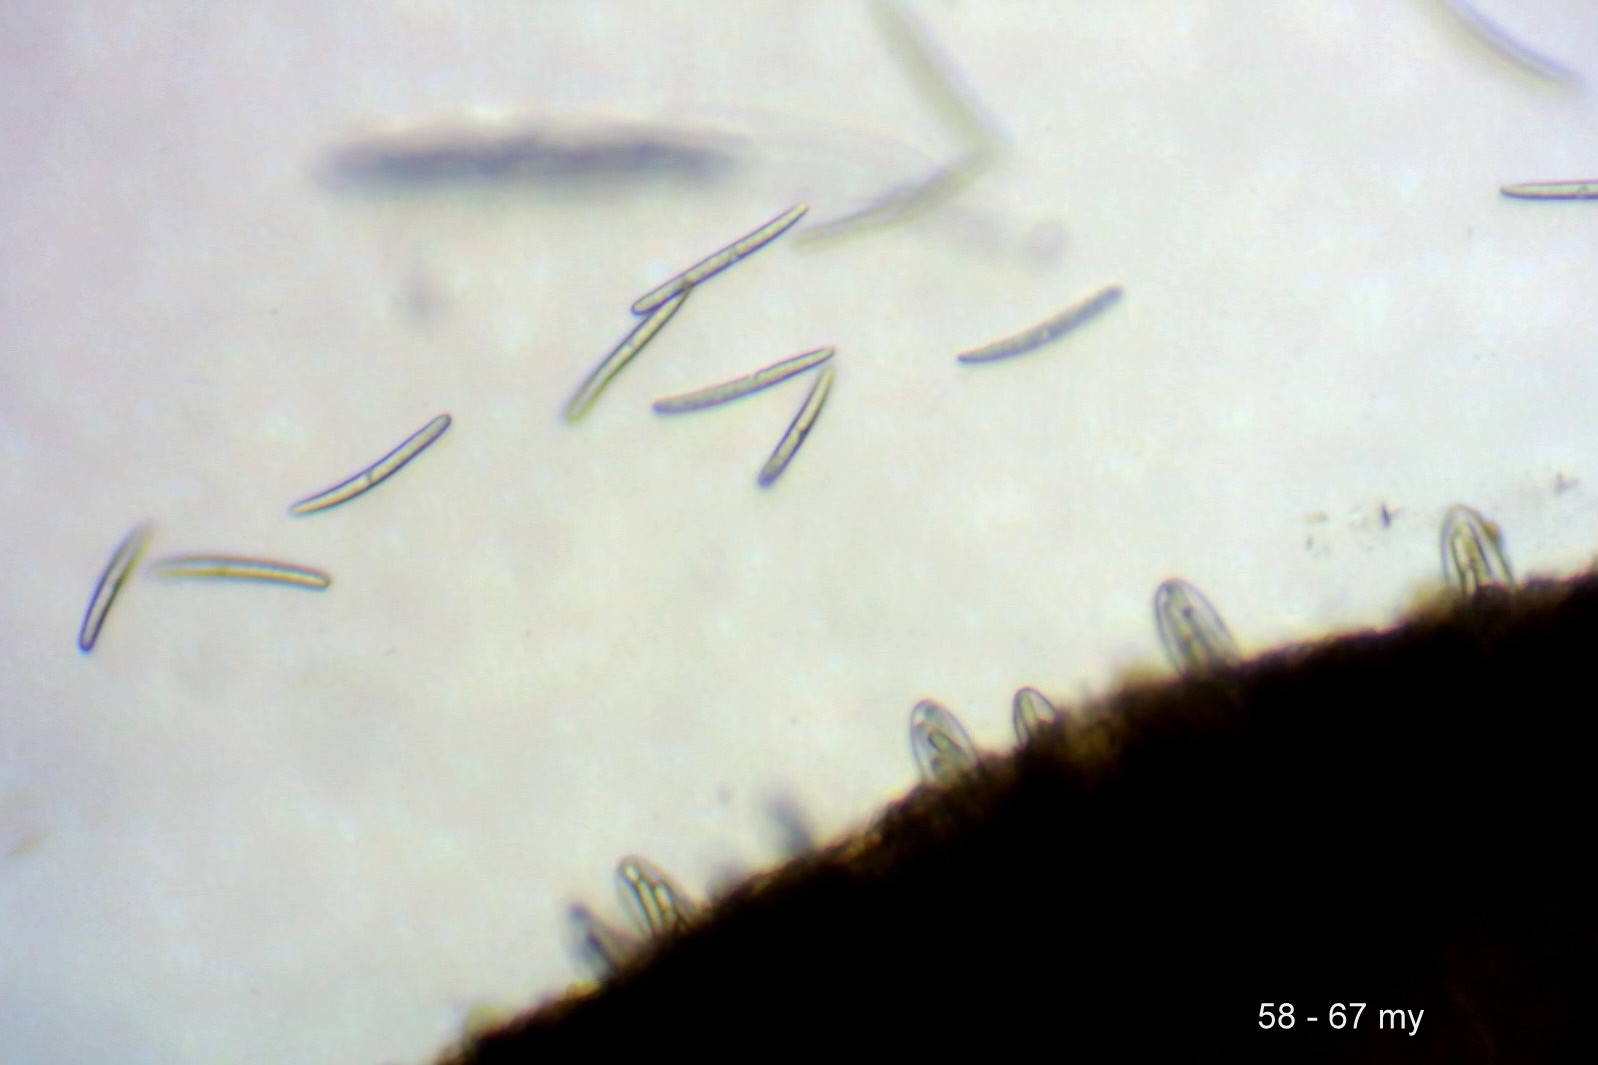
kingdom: Fungi
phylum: Ascomycota
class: Geoglossomycetes
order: Geoglossales
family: Geoglossaceae
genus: Hemileucoglossum
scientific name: Hemileucoglossum elongatum
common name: småsporet jordtunge
